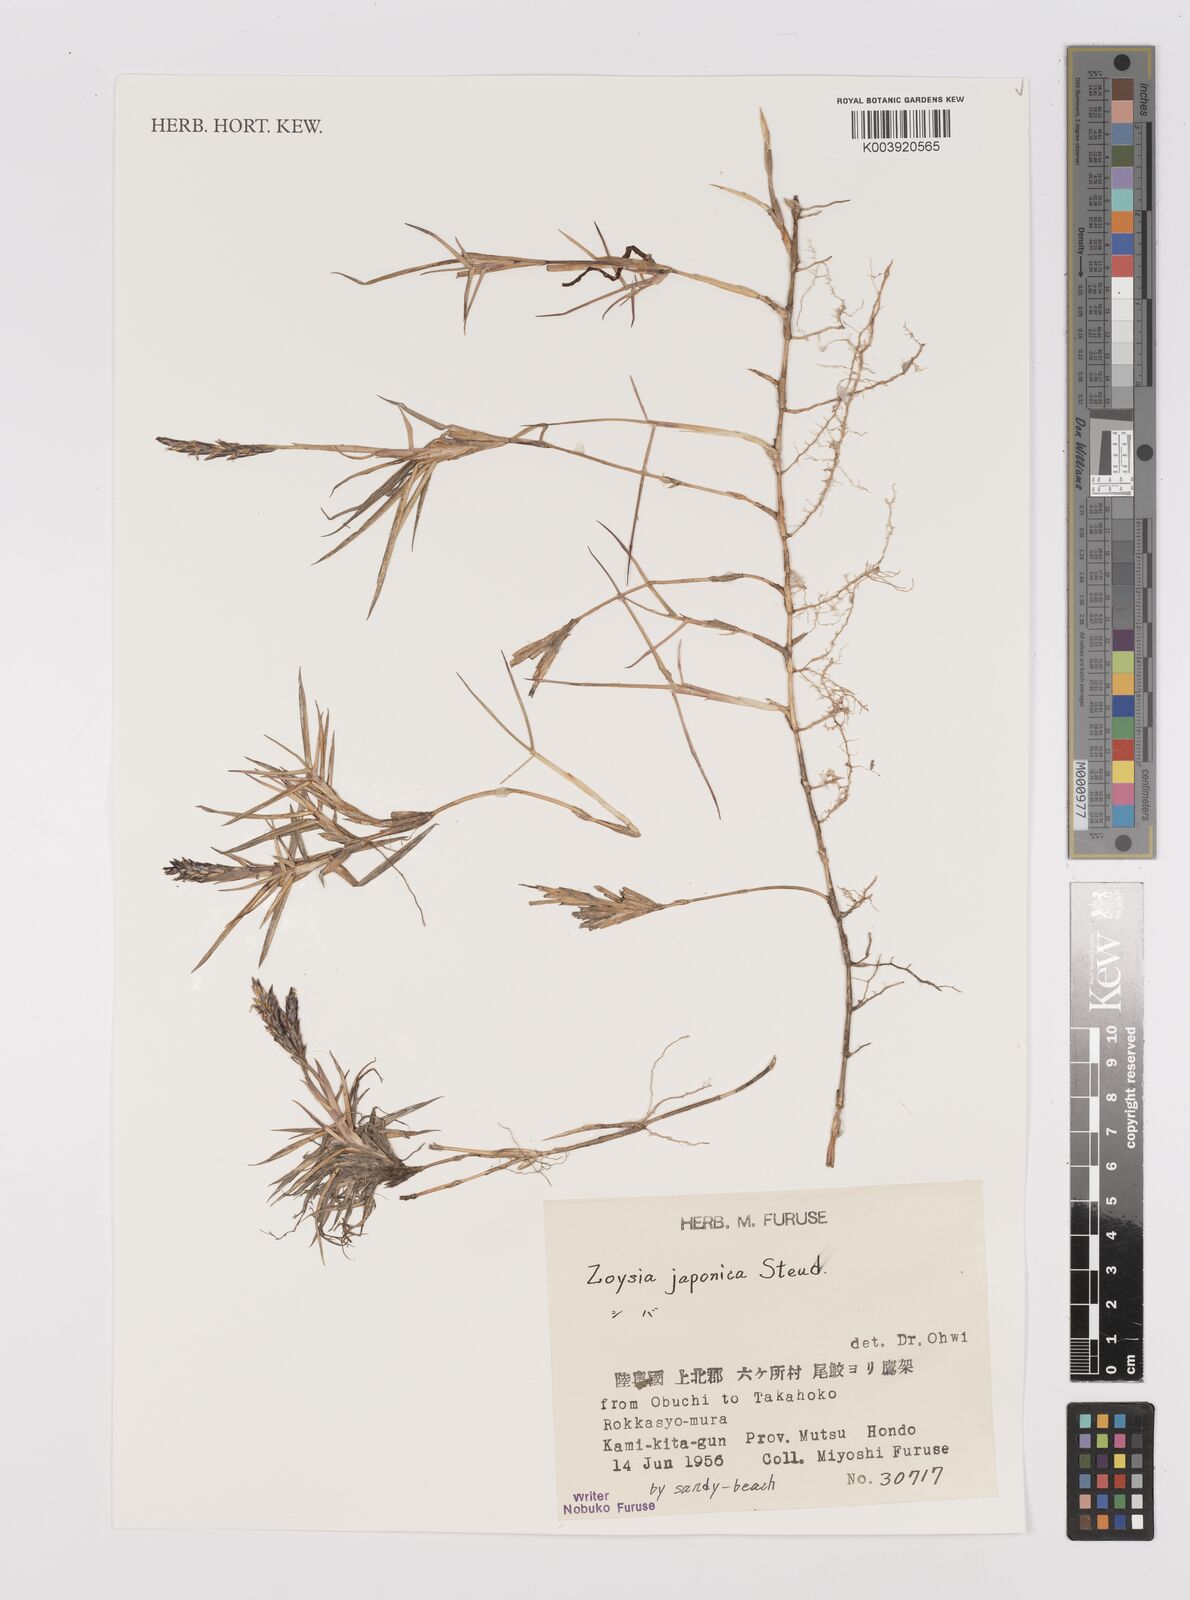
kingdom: Plantae
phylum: Tracheophyta
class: Liliopsida
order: Poales
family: Poaceae
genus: Zoysia
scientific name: Zoysia japonica
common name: Korean lawngrass
